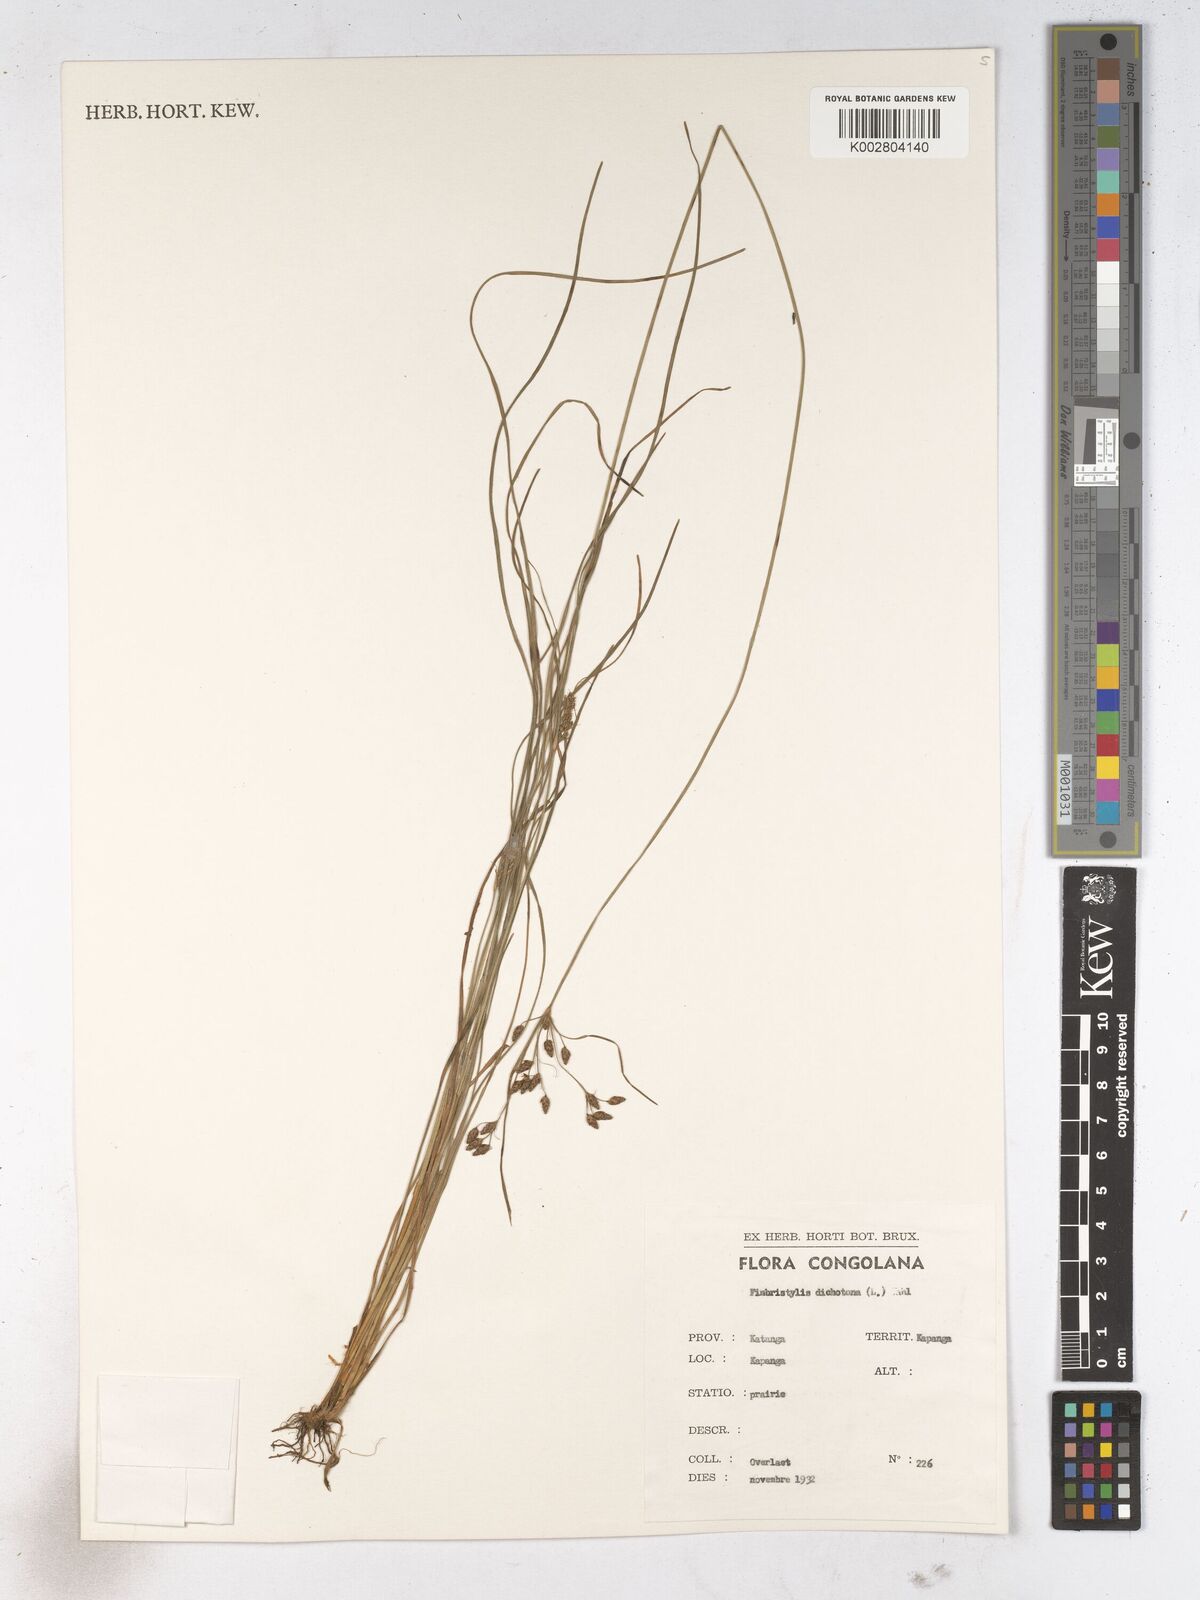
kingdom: Plantae
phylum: Tracheophyta
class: Liliopsida
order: Poales
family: Cyperaceae
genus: Fimbristylis
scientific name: Fimbristylis dichotoma
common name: Forked fimbry
